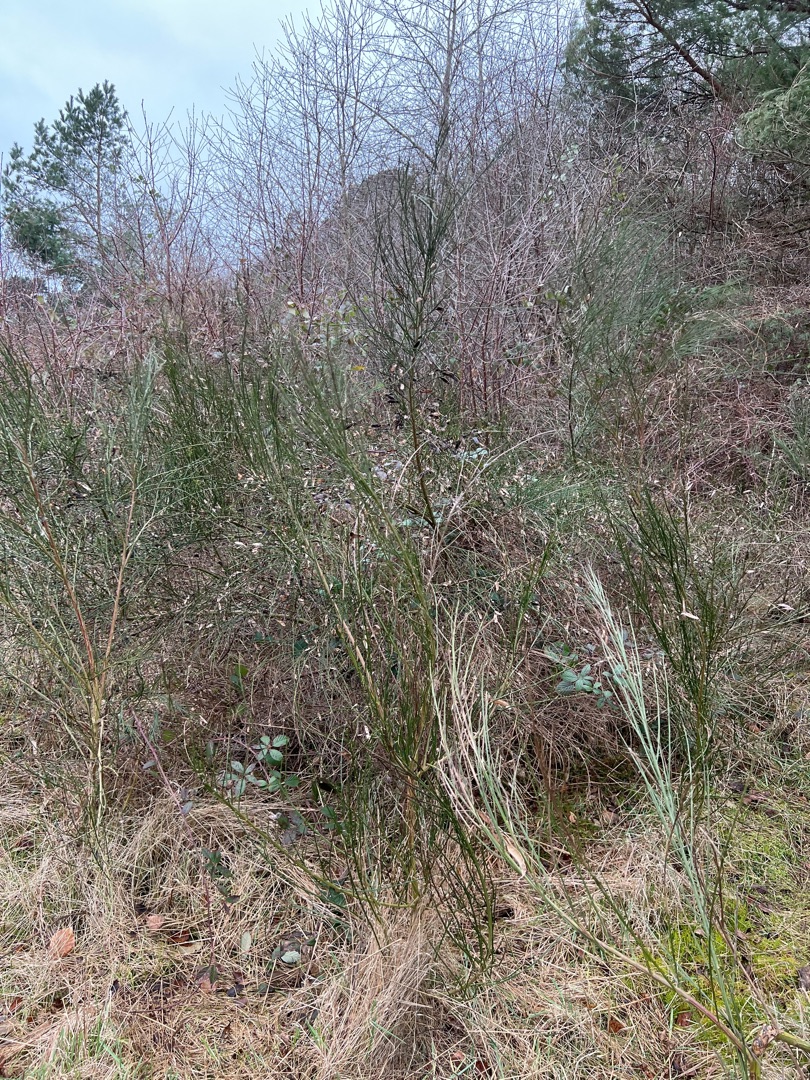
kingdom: Plantae
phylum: Tracheophyta
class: Magnoliopsida
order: Fabales
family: Fabaceae
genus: Cytisus
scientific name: Cytisus scoparius
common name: Almindelig gyvel
